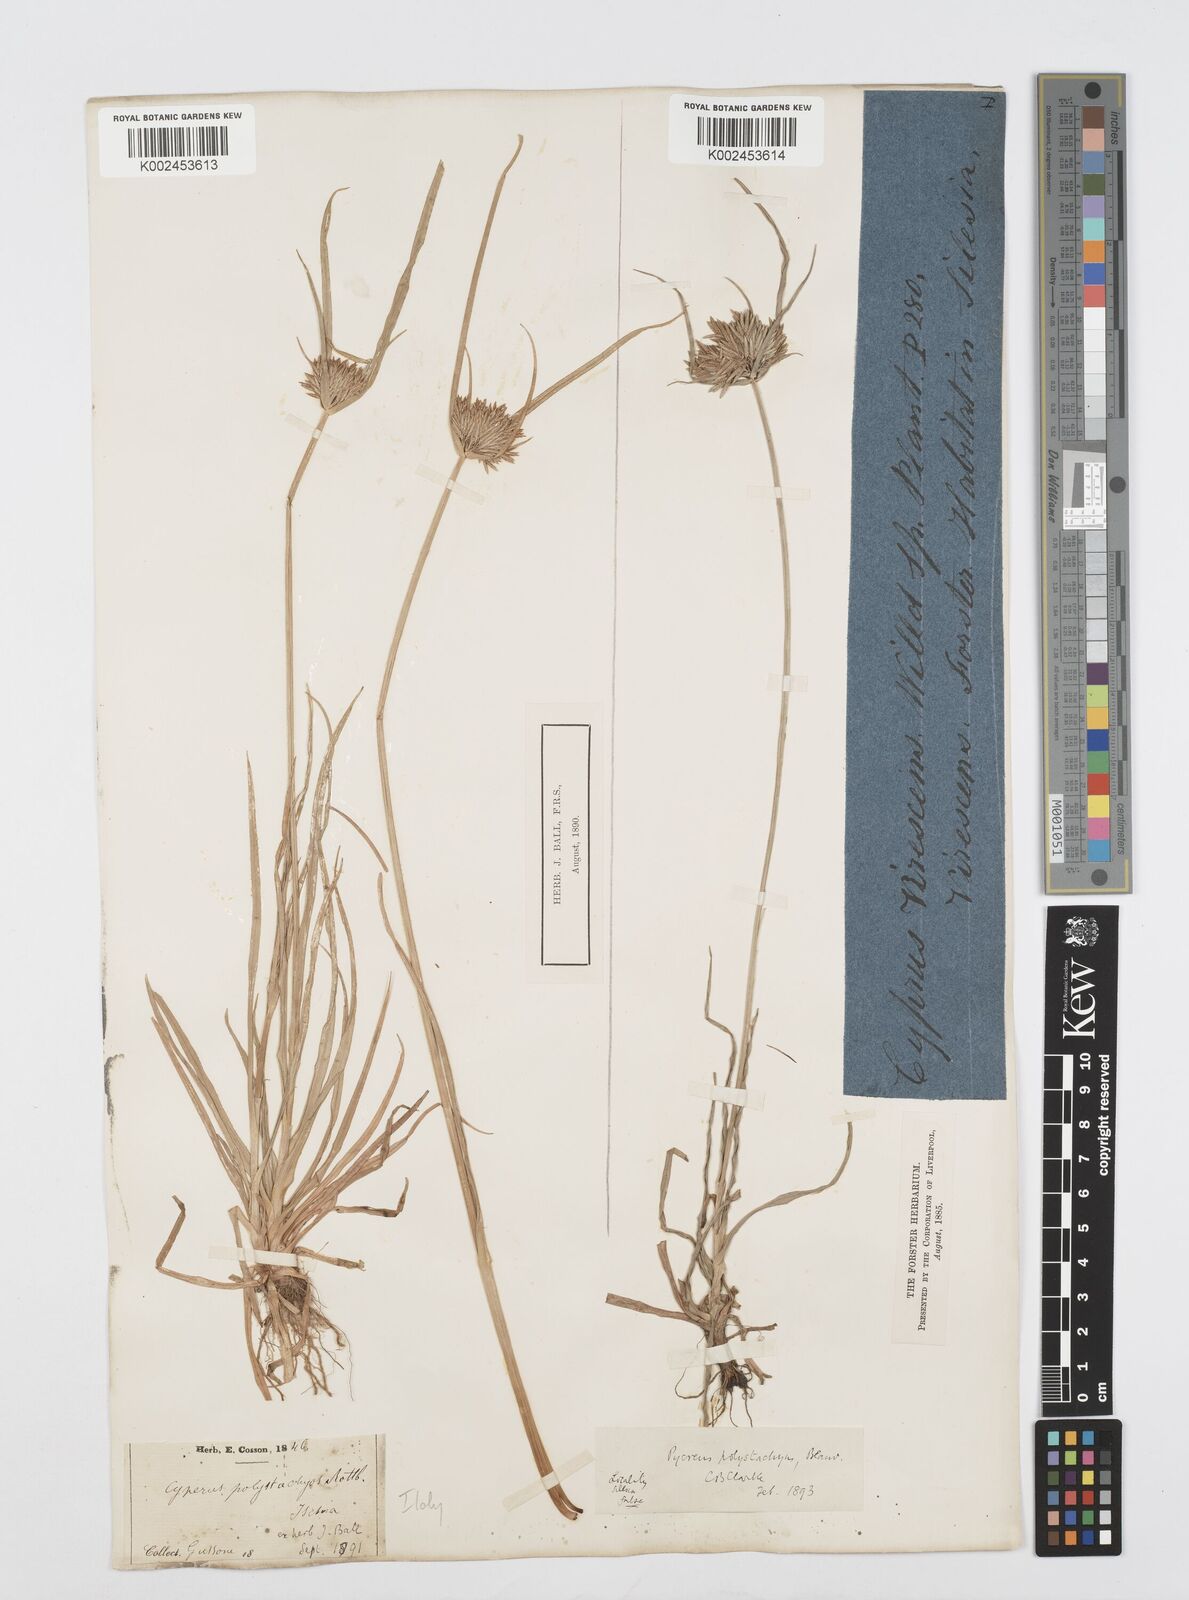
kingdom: Plantae
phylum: Tracheophyta
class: Liliopsida
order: Poales
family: Cyperaceae
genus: Cyperus
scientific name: Cyperus polystachyos
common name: Bunchy flat sedge
